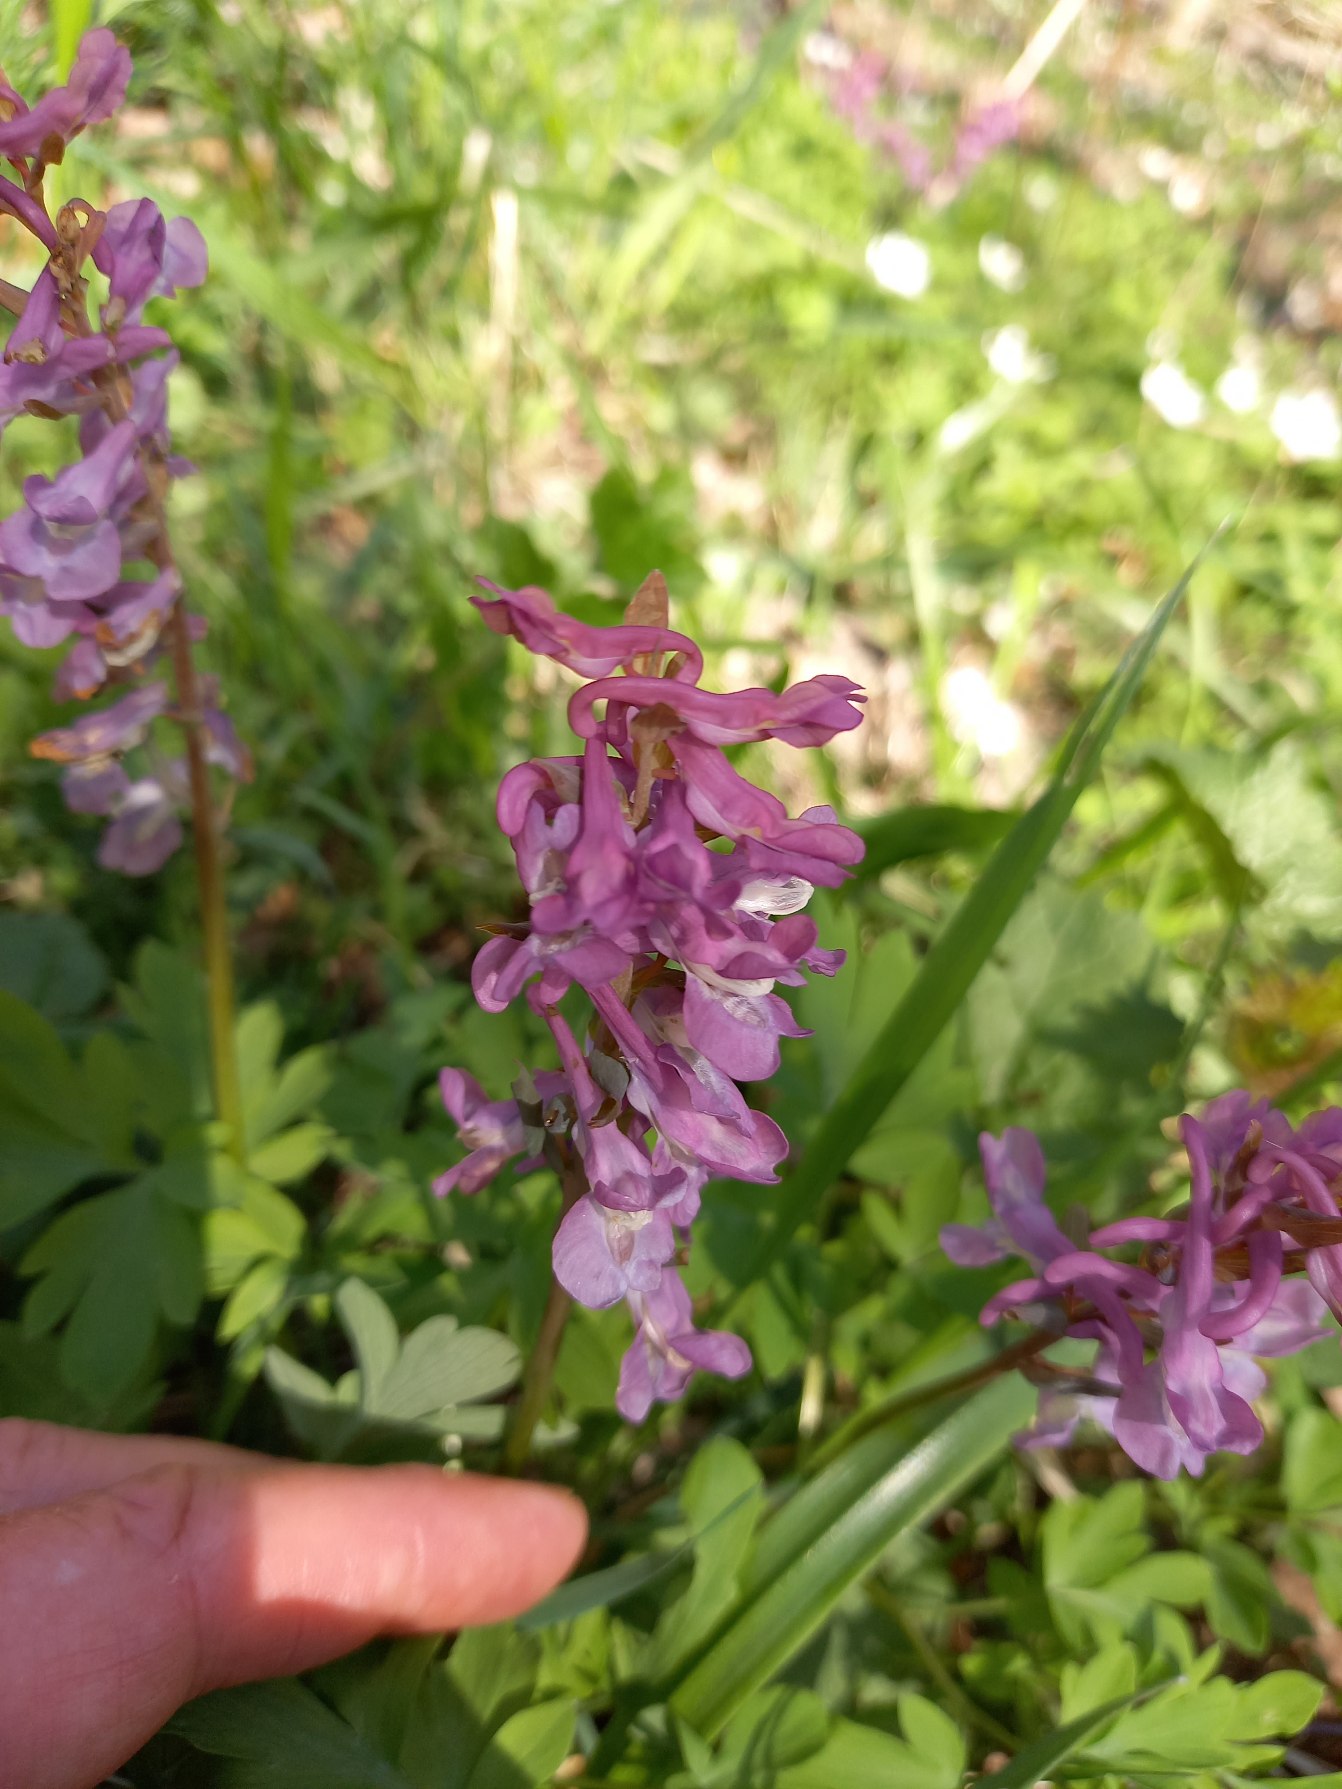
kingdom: Plantae
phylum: Tracheophyta
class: Magnoliopsida
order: Ranunculales
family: Papaveraceae
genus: Corydalis
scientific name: Corydalis cava
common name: Hulrodet lærkespore
